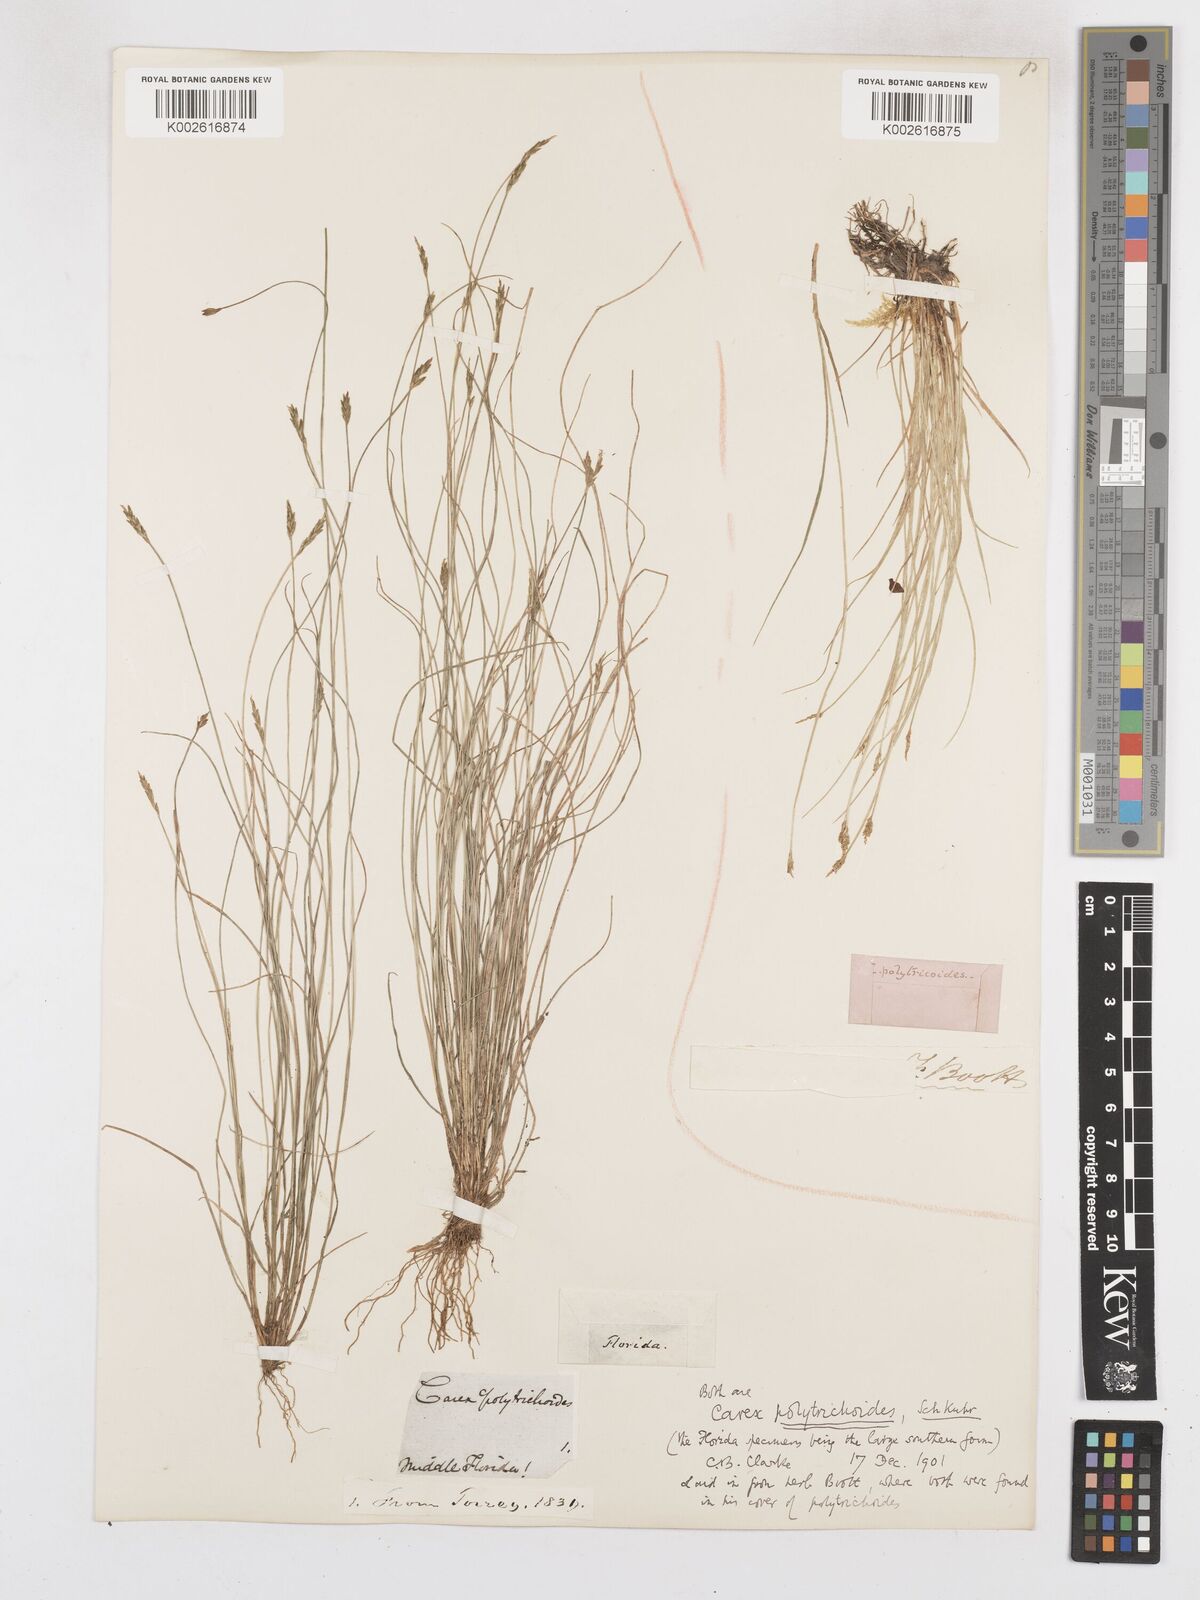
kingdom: Plantae
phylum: Tracheophyta
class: Liliopsida
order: Poales
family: Cyperaceae
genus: Carex
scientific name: Carex leptalea
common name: Bristly-stalked sedge
